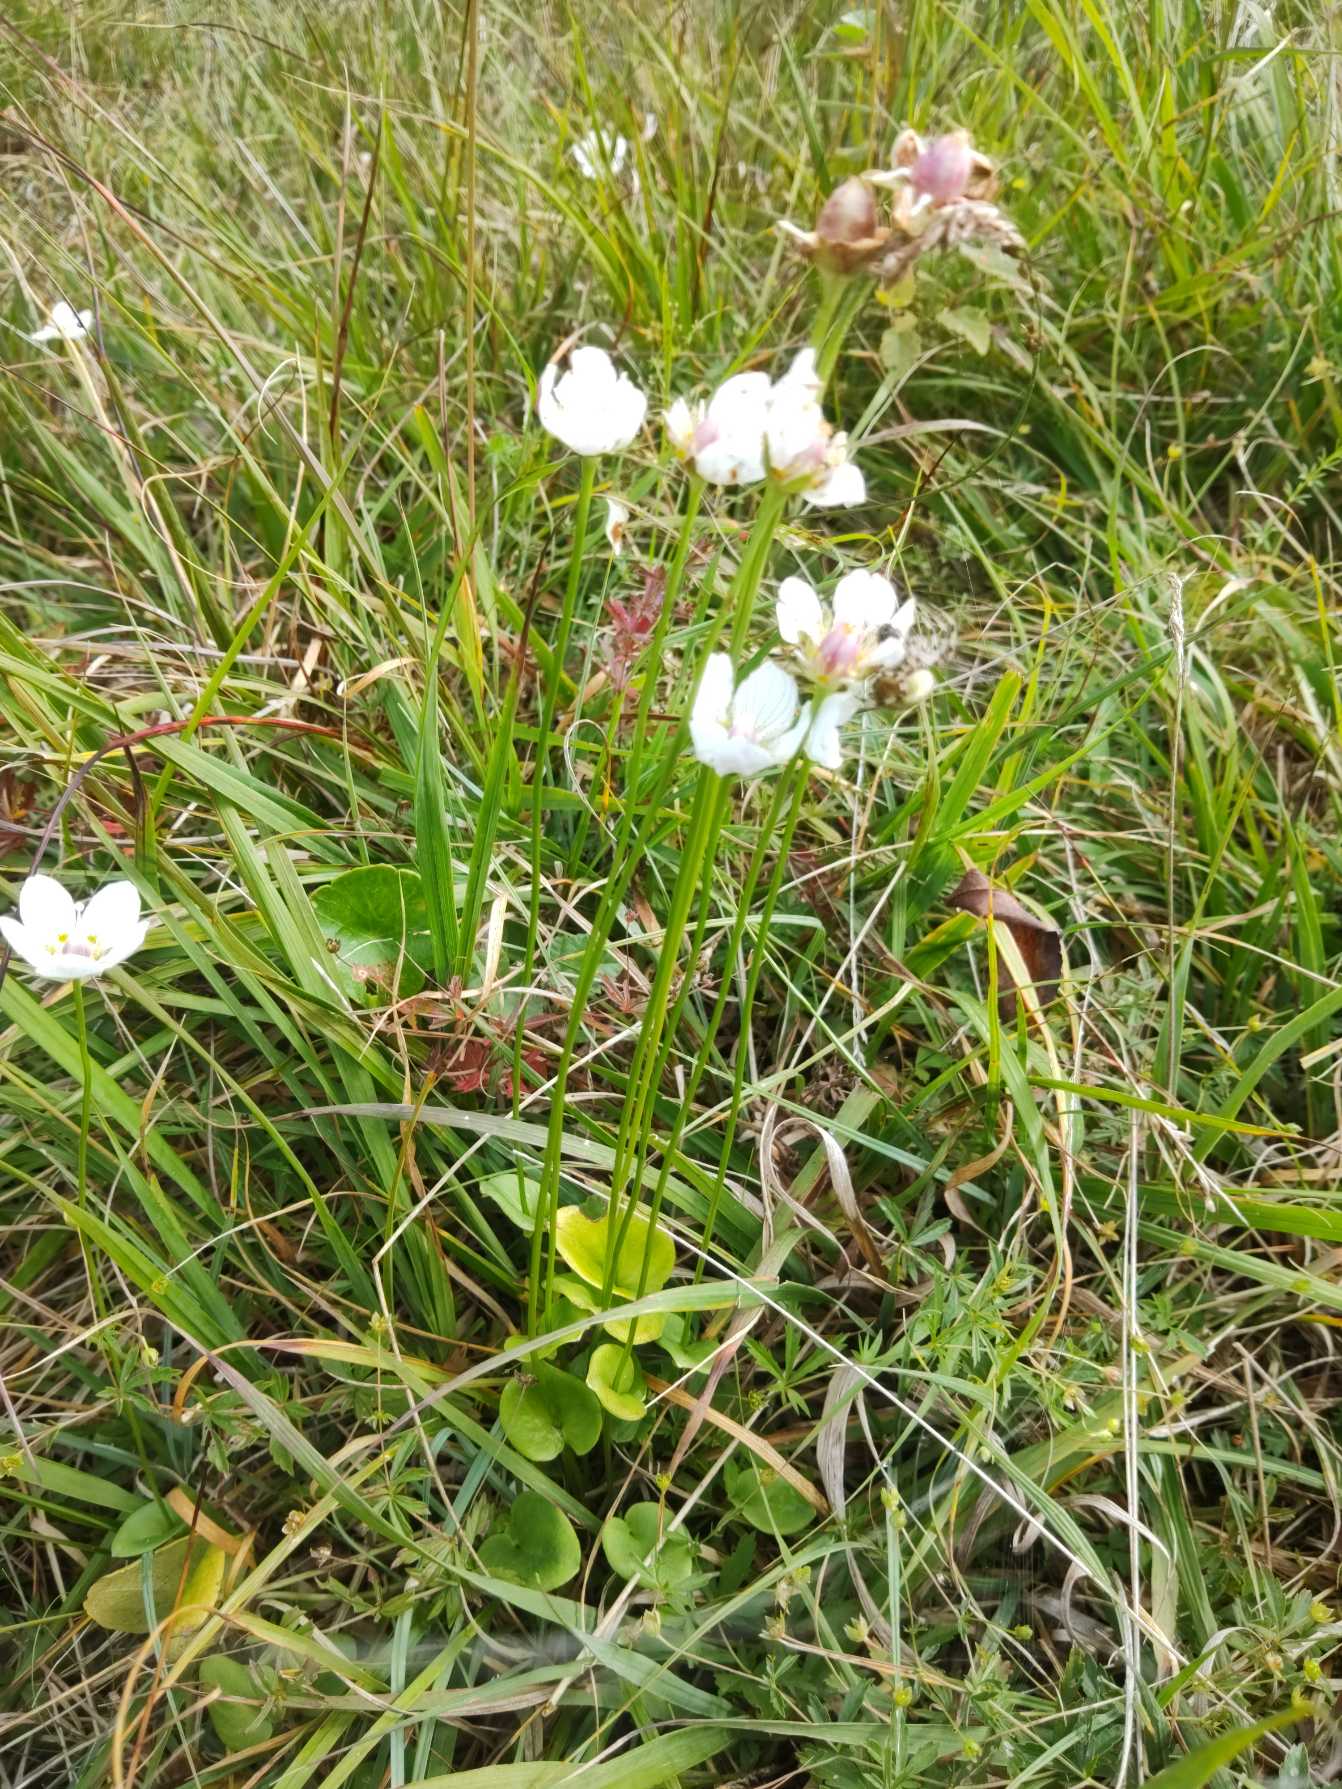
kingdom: Plantae
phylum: Tracheophyta
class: Magnoliopsida
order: Celastrales
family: Parnassiaceae
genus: Parnassia
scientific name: Parnassia palustris
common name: Leverurt
